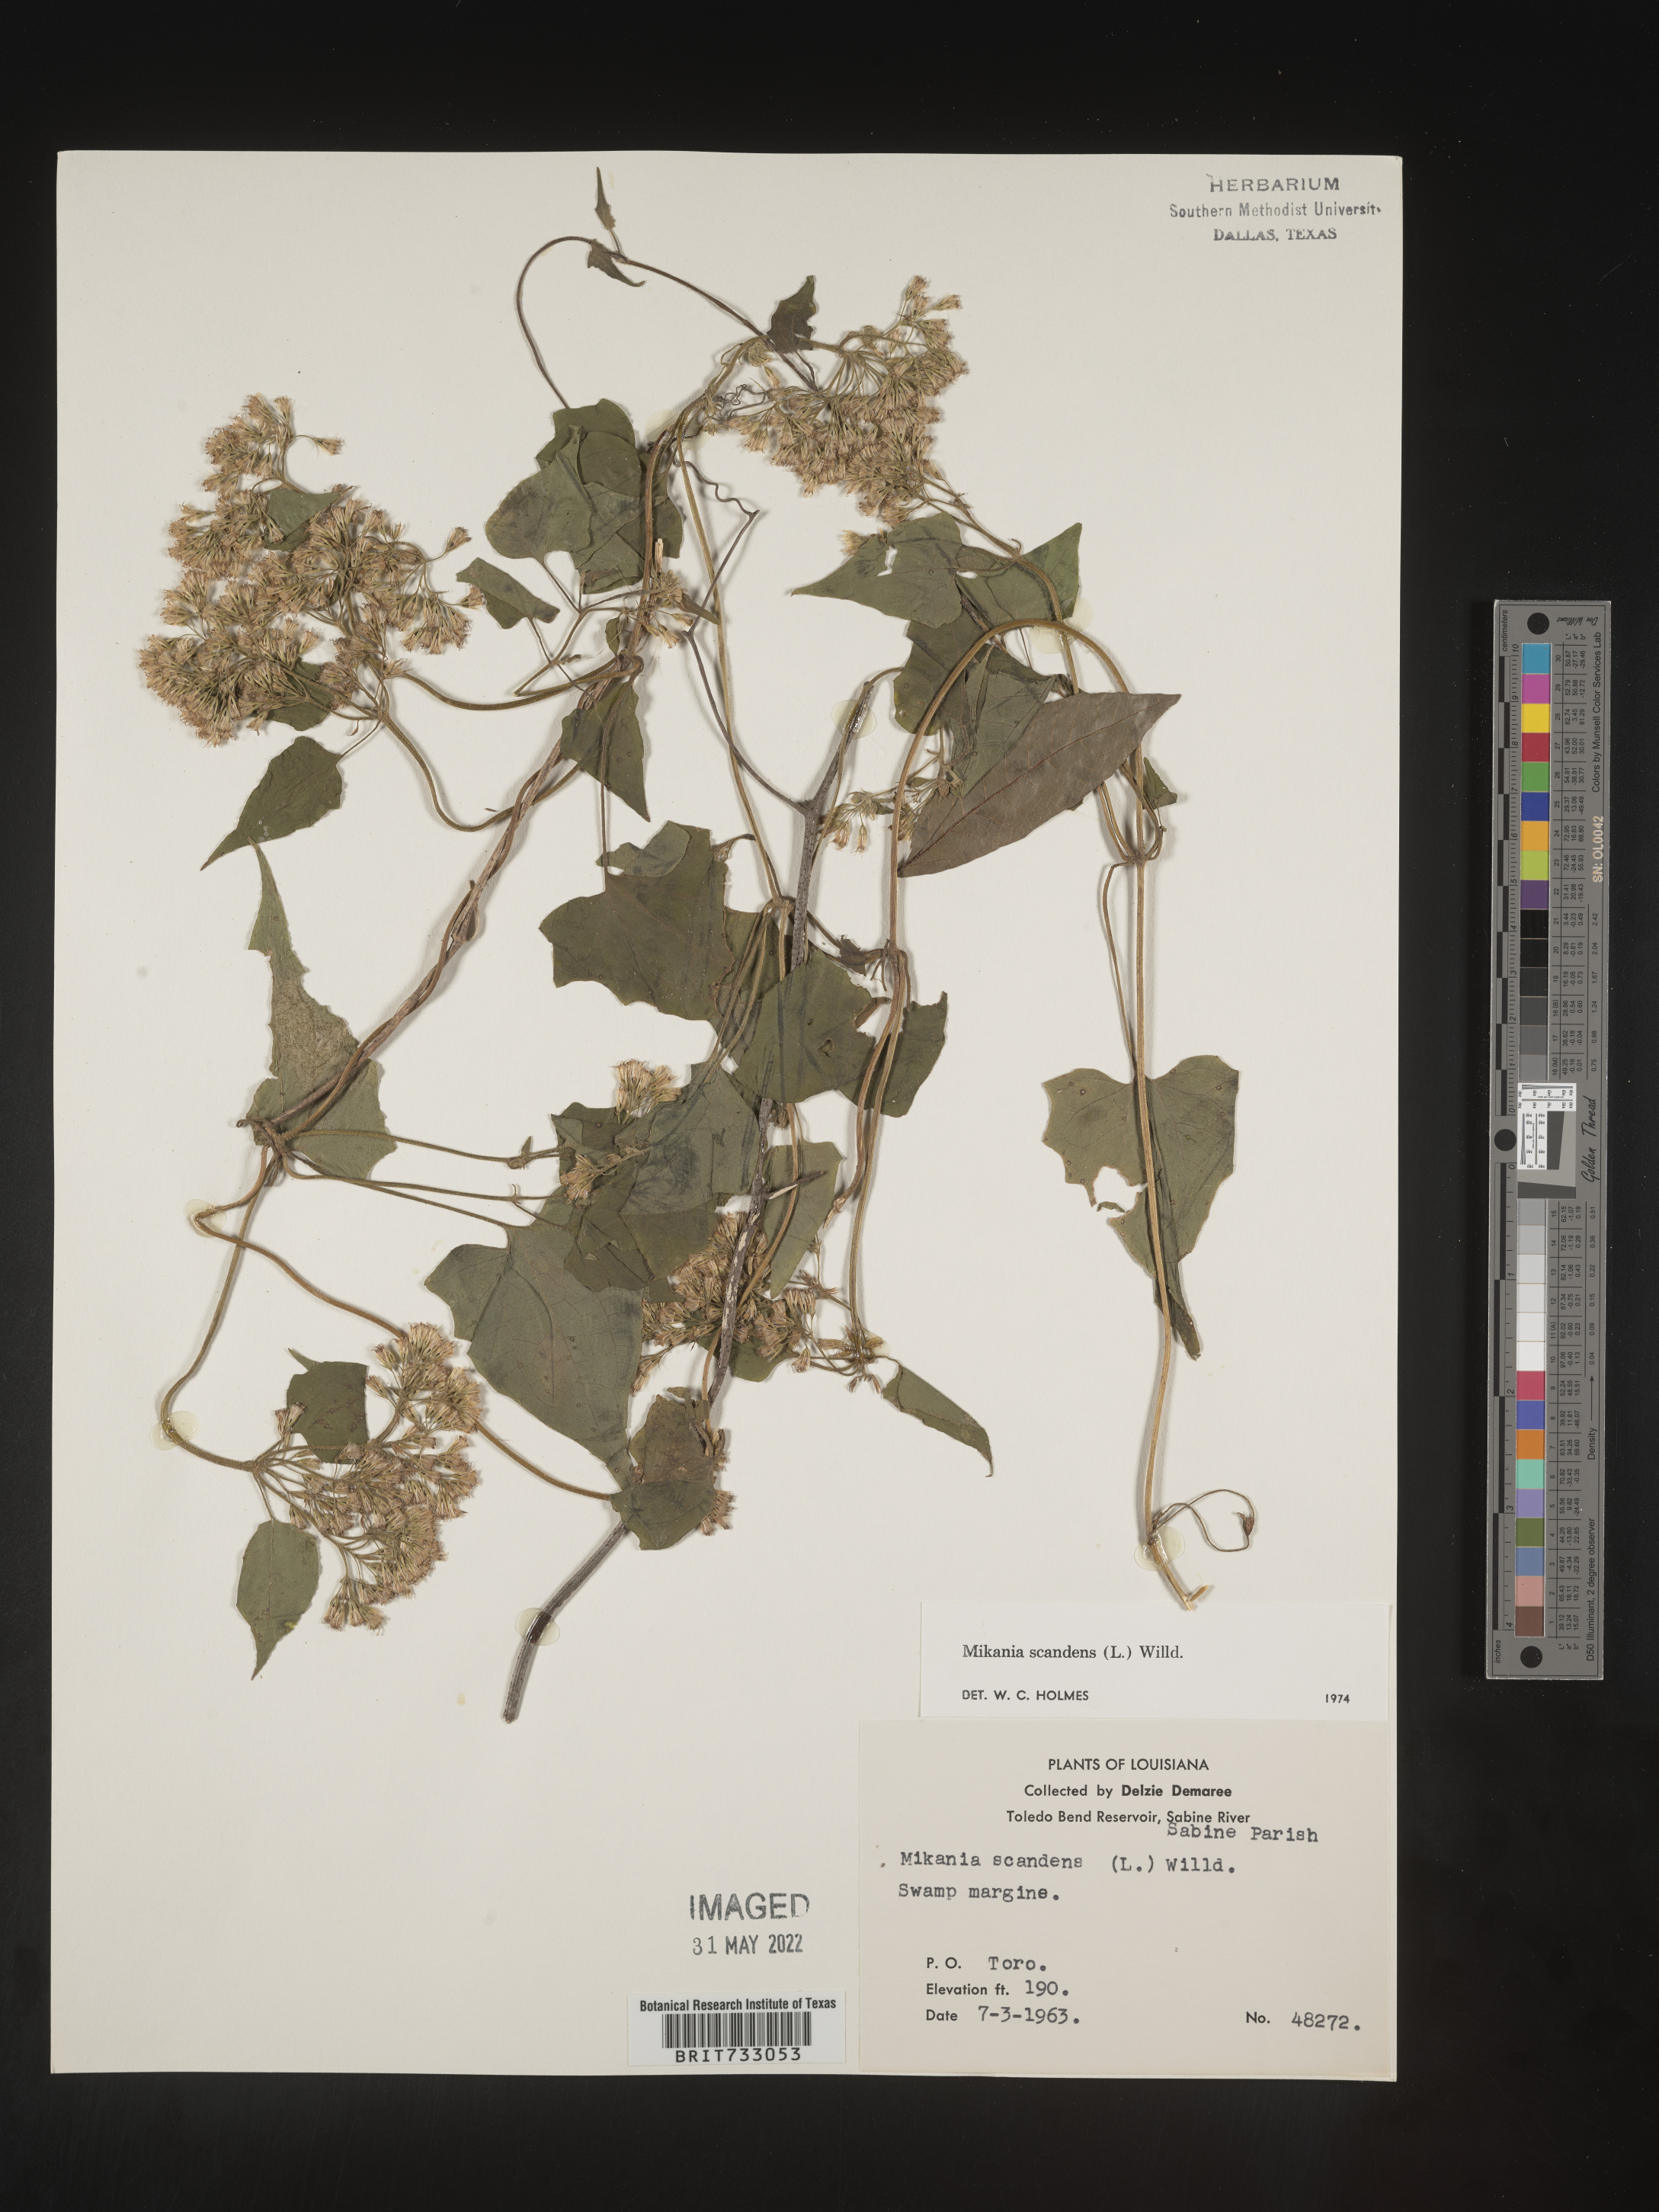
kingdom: Plantae
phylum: Tracheophyta
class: Magnoliopsida
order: Asterales
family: Asteraceae
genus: Mikania
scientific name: Mikania scandens
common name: Climbing hempvine
